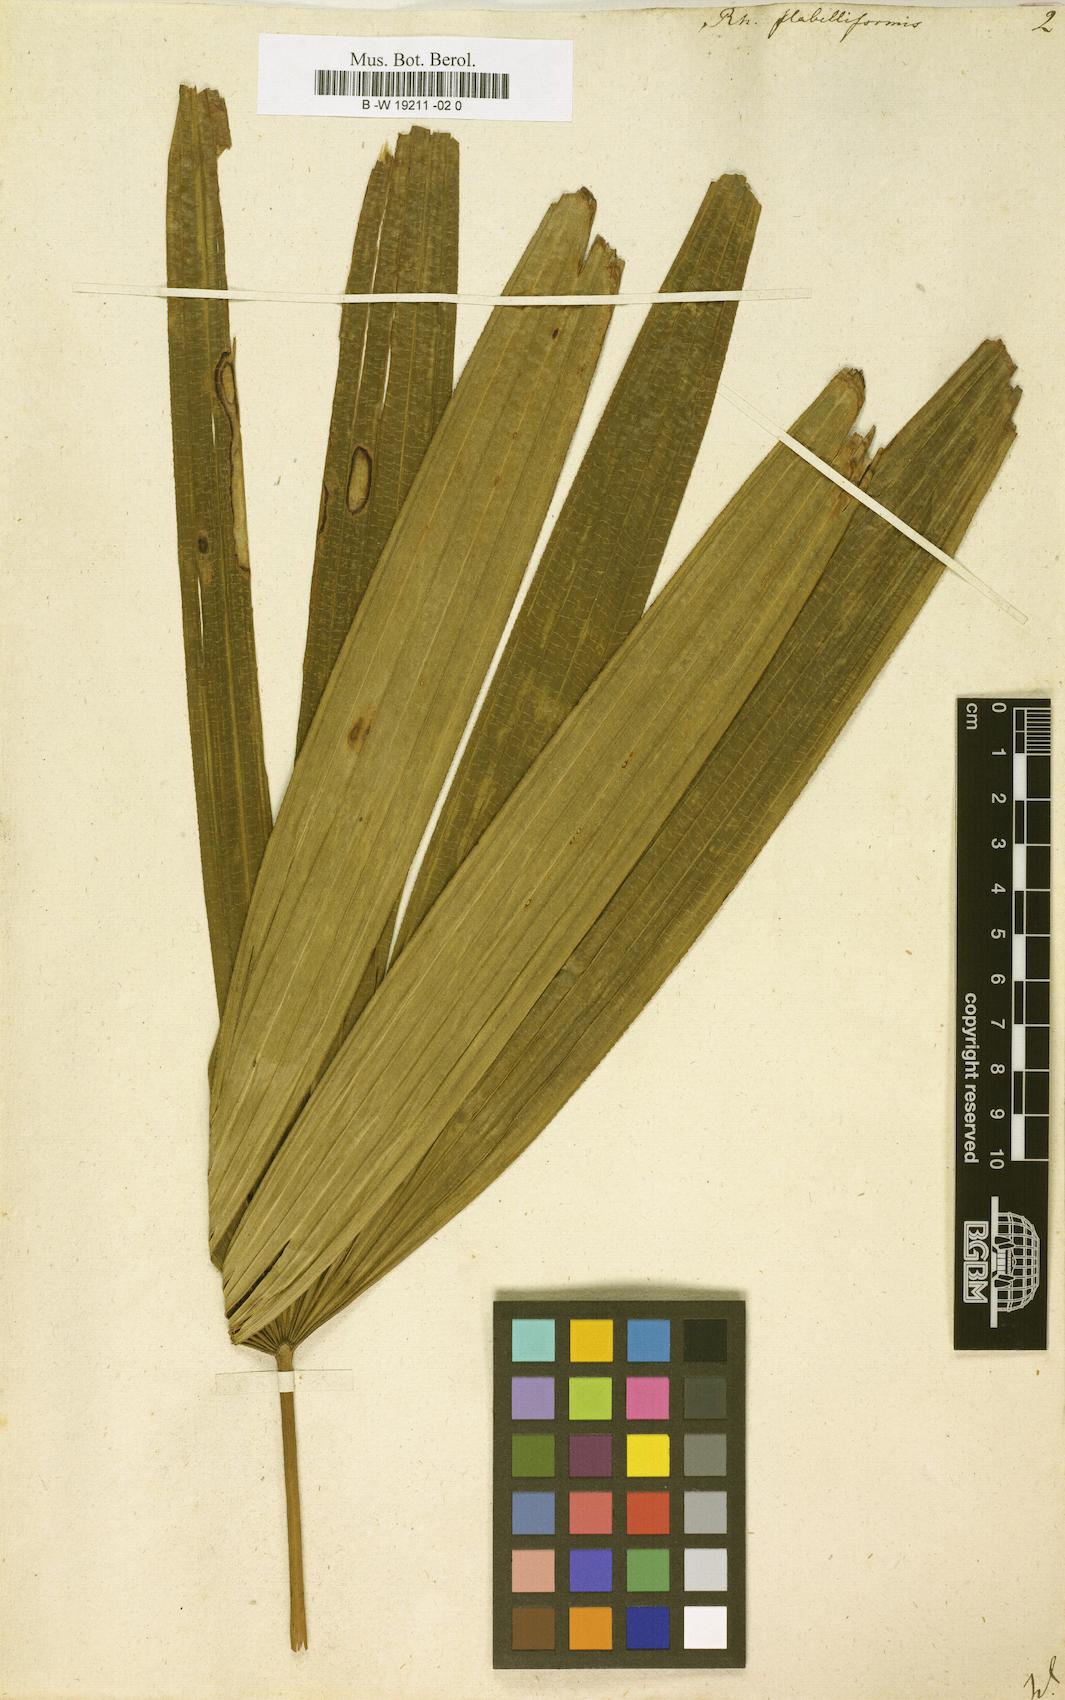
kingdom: Plantae
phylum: Tracheophyta
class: Liliopsida
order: Arecales
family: Arecaceae
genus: Rhapis
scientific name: Rhapis excelsa
